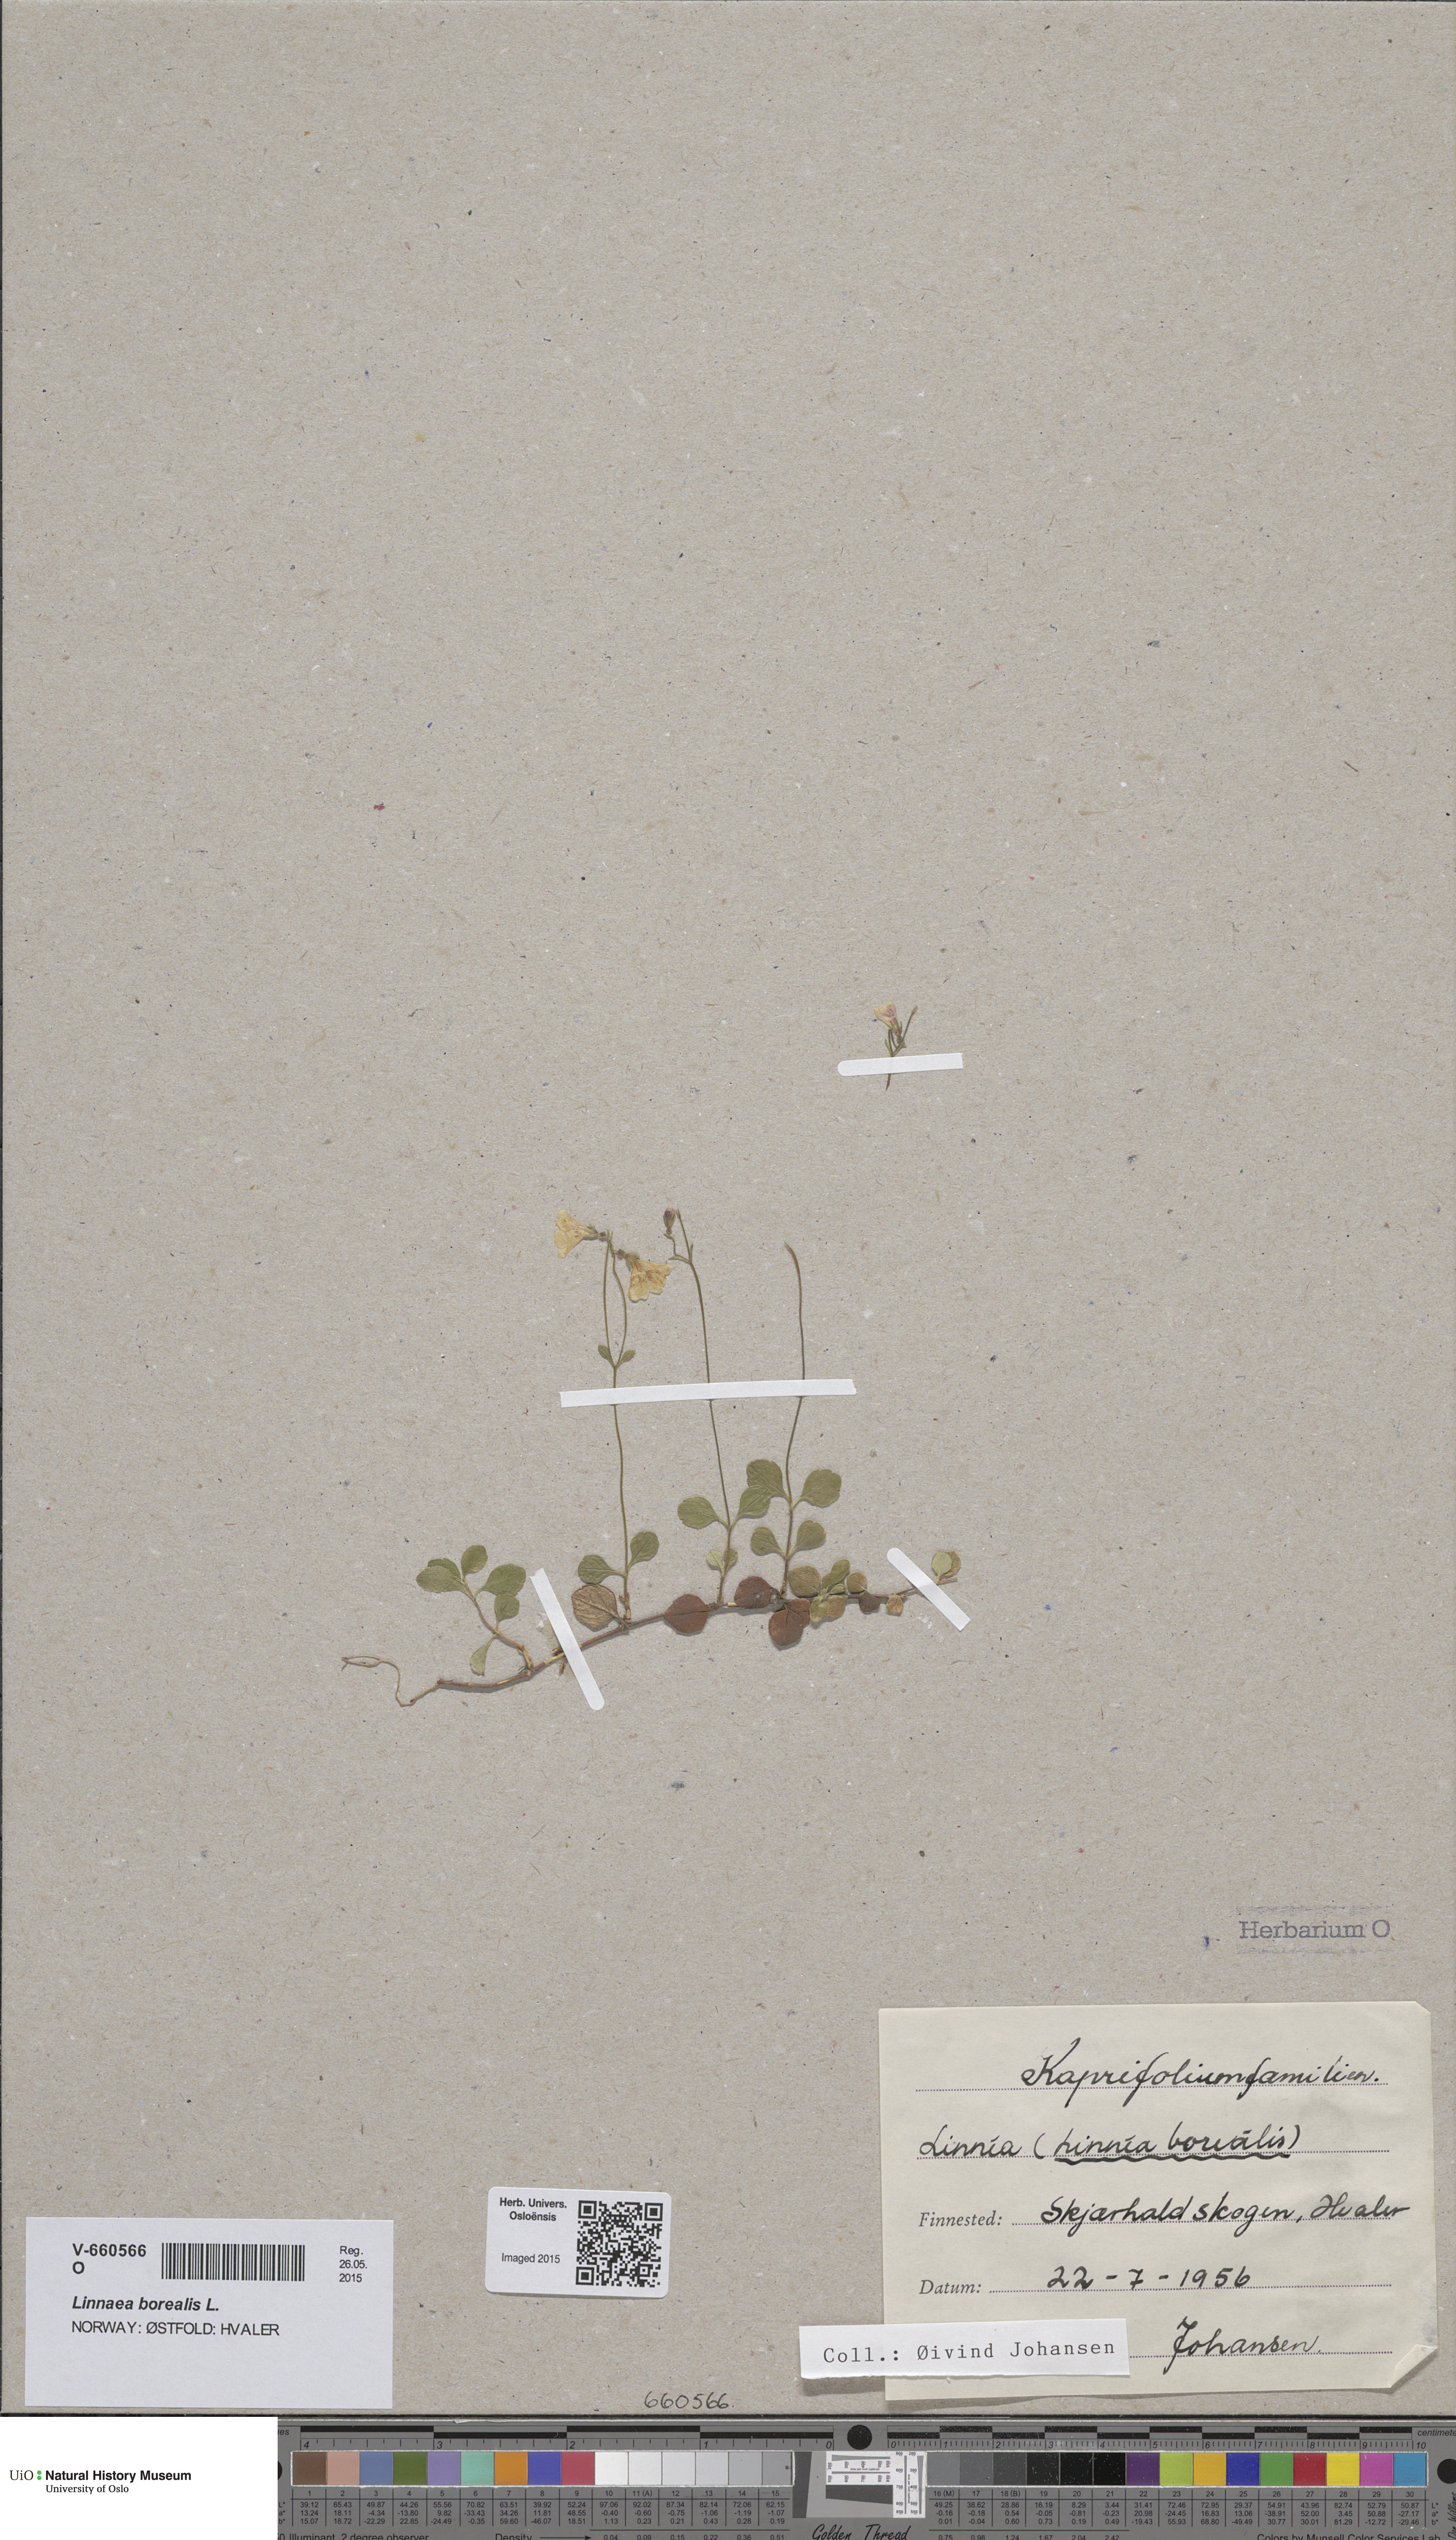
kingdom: Plantae
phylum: Tracheophyta
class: Magnoliopsida
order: Dipsacales
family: Caprifoliaceae
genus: Linnaea
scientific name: Linnaea borealis
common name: Twinflower
